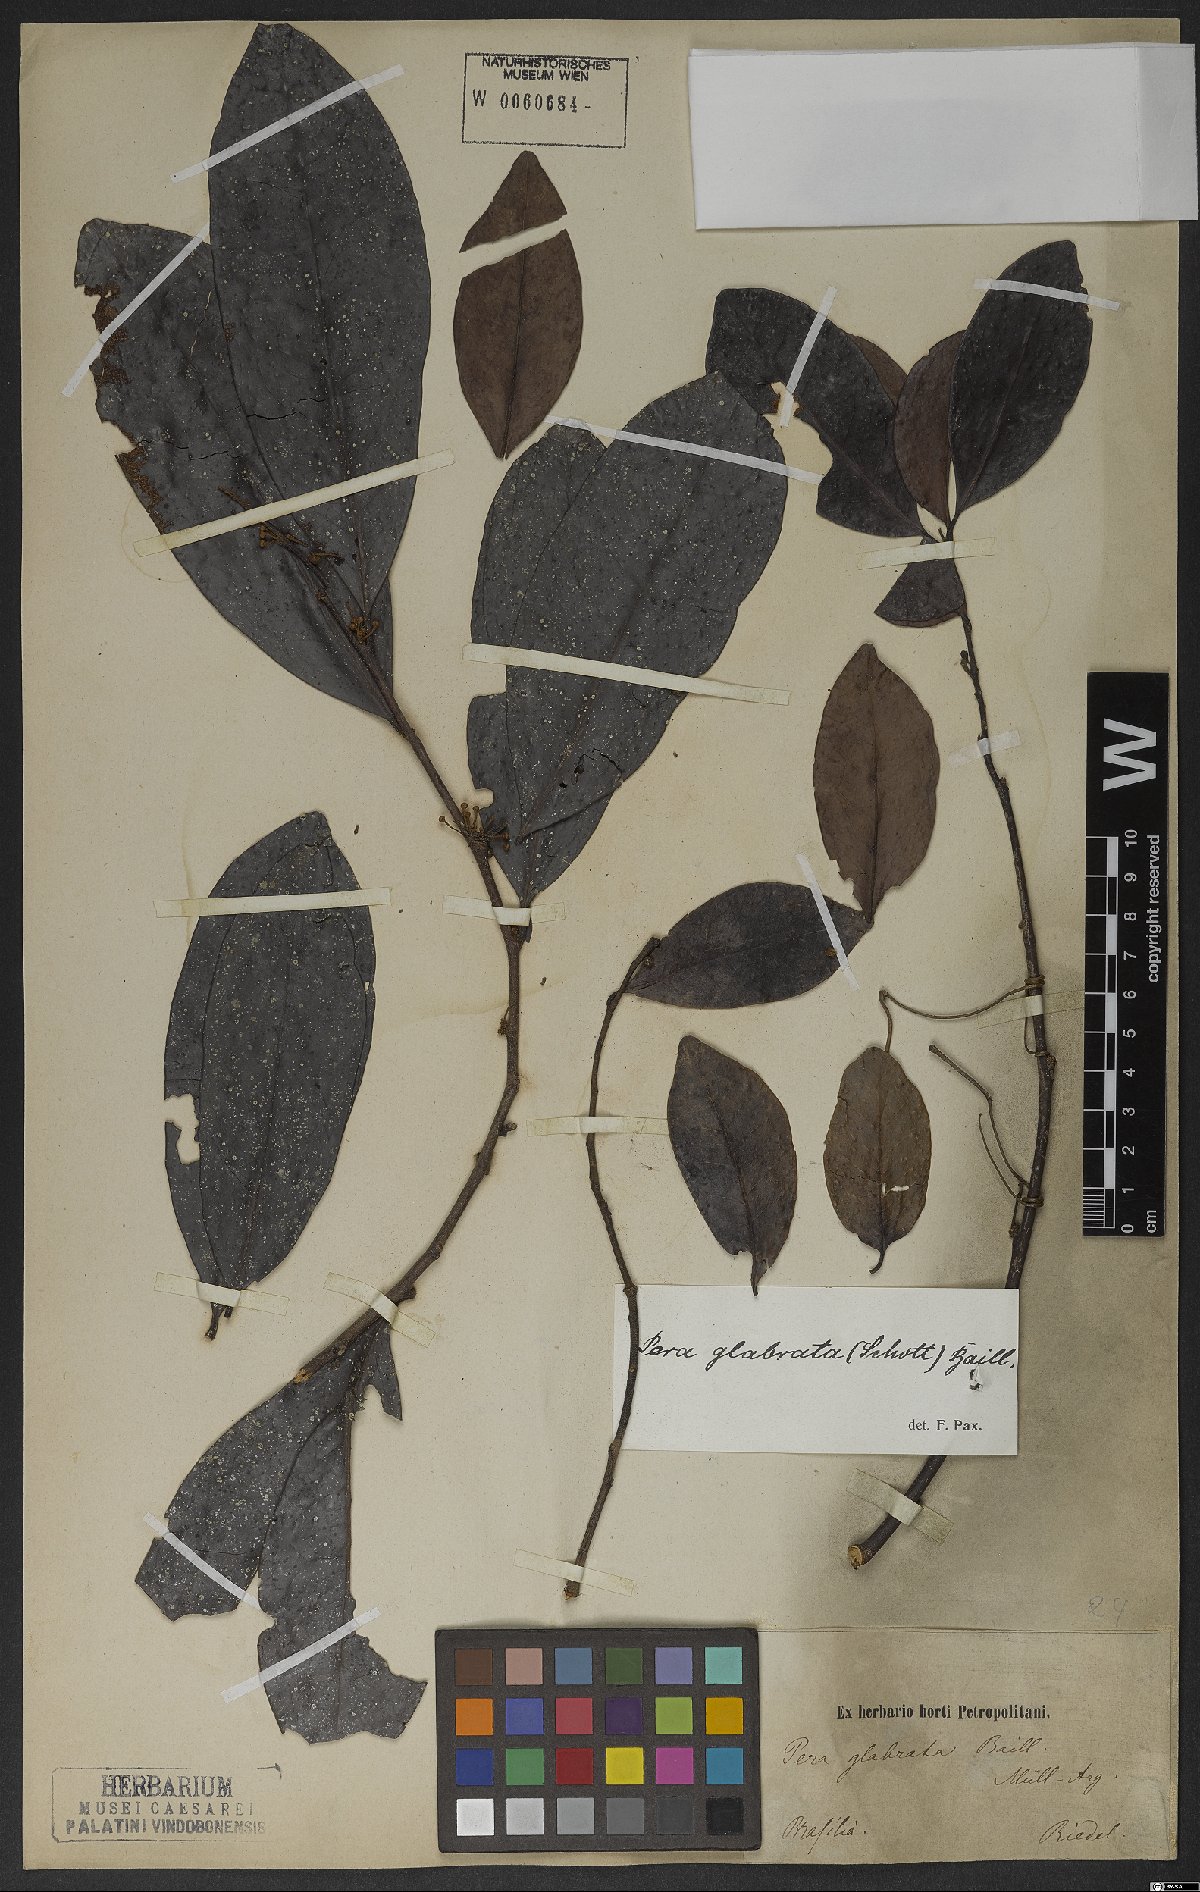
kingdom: Plantae
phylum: Tracheophyta
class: Magnoliopsida
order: Malpighiales
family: Peraceae
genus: Pera
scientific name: Pera glabrata
